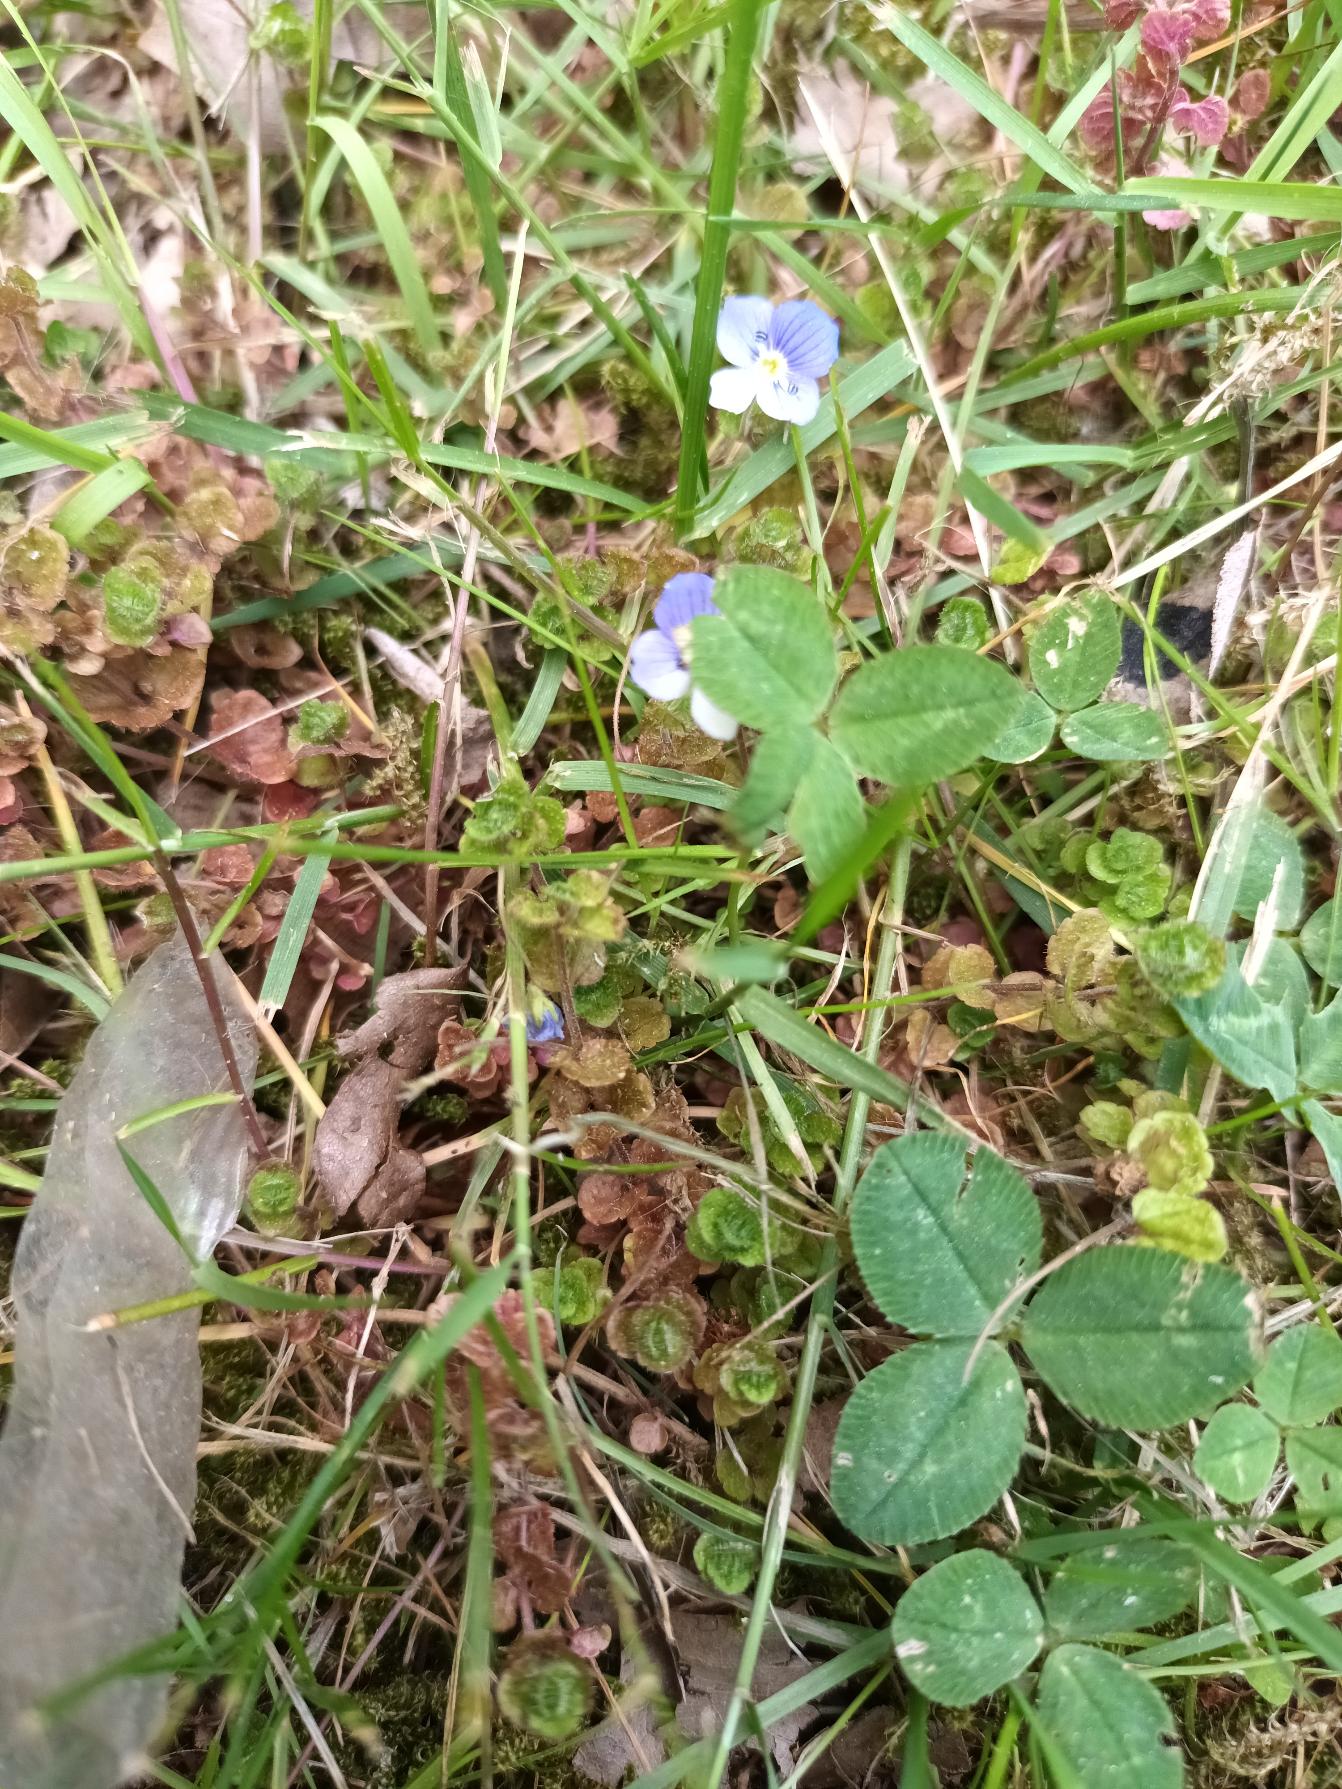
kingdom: Plantae
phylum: Tracheophyta
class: Magnoliopsida
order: Lamiales
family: Plantaginaceae
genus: Veronica
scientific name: Veronica filiformis
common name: Tråd-ærenpris
